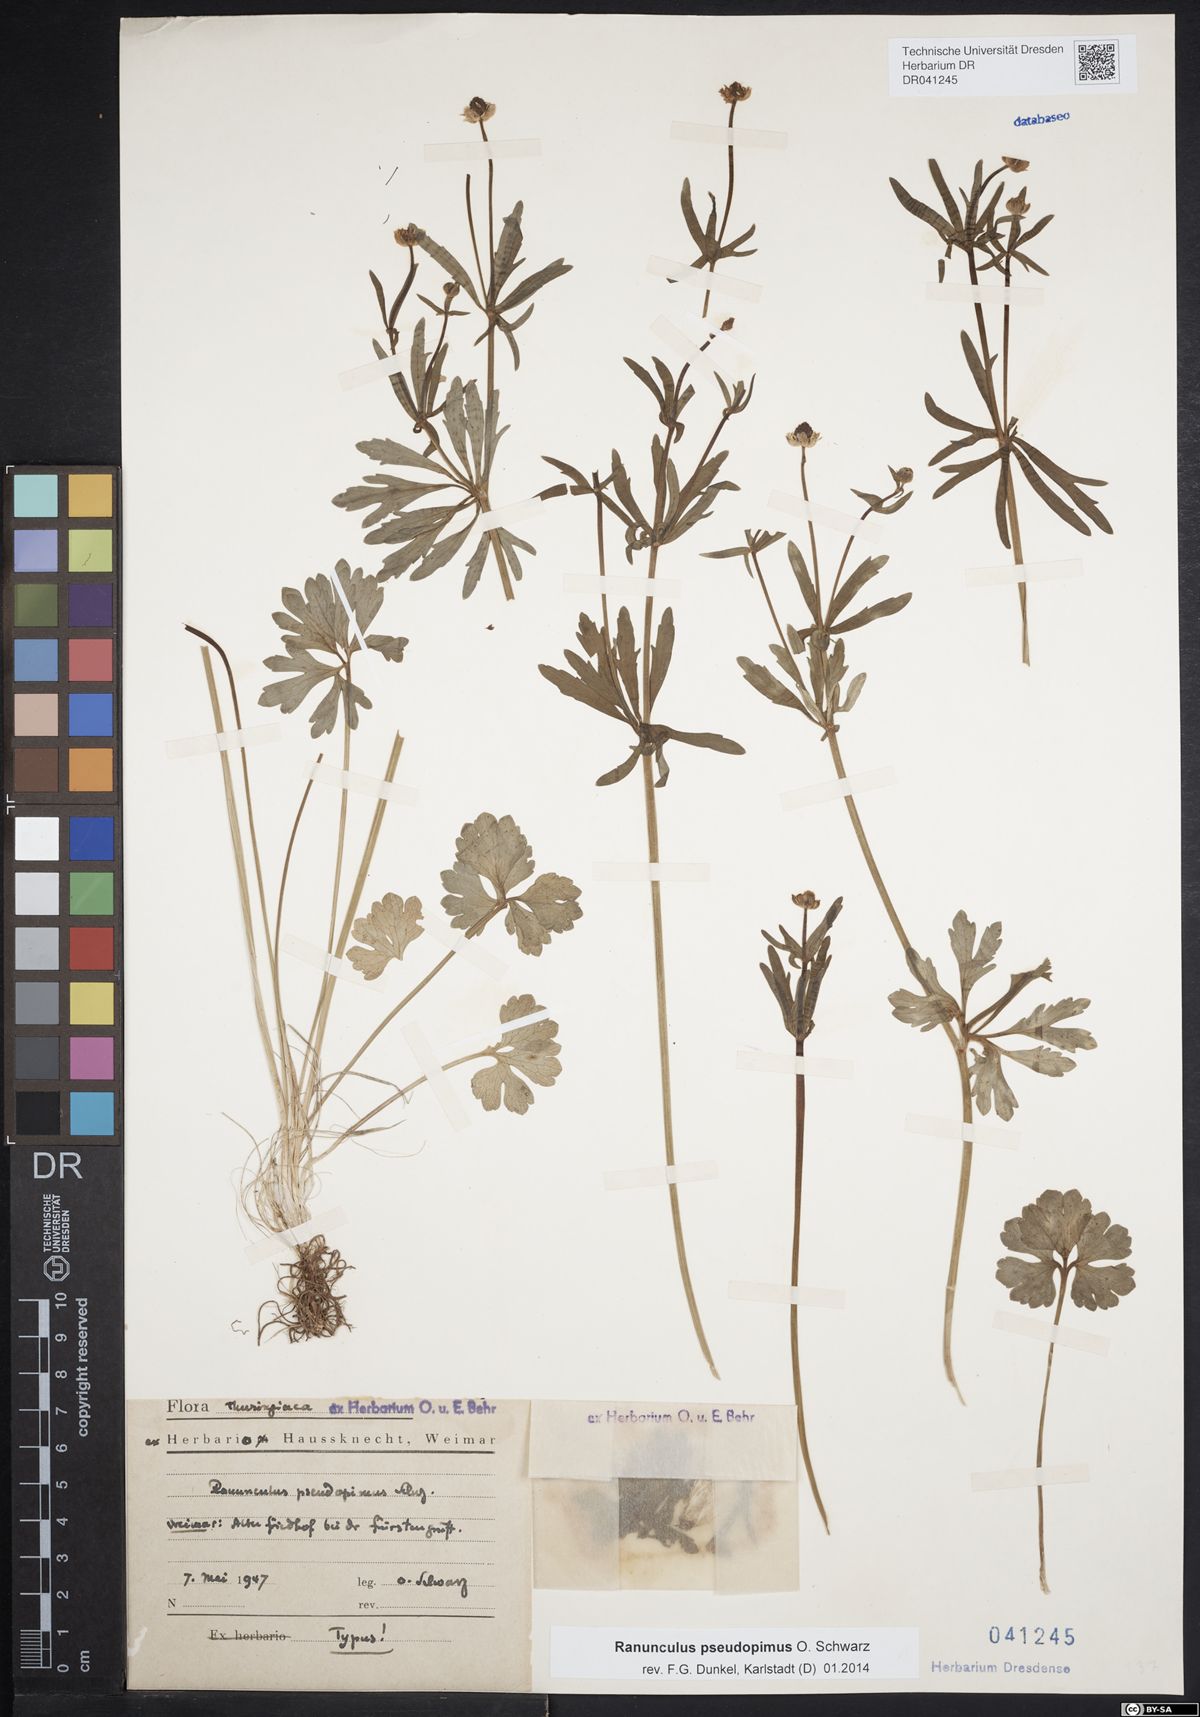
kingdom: Plantae
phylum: Tracheophyta
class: Magnoliopsida
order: Ranunculales
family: Ranunculaceae
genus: Ranunculus
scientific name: Ranunculus pseudopimus
